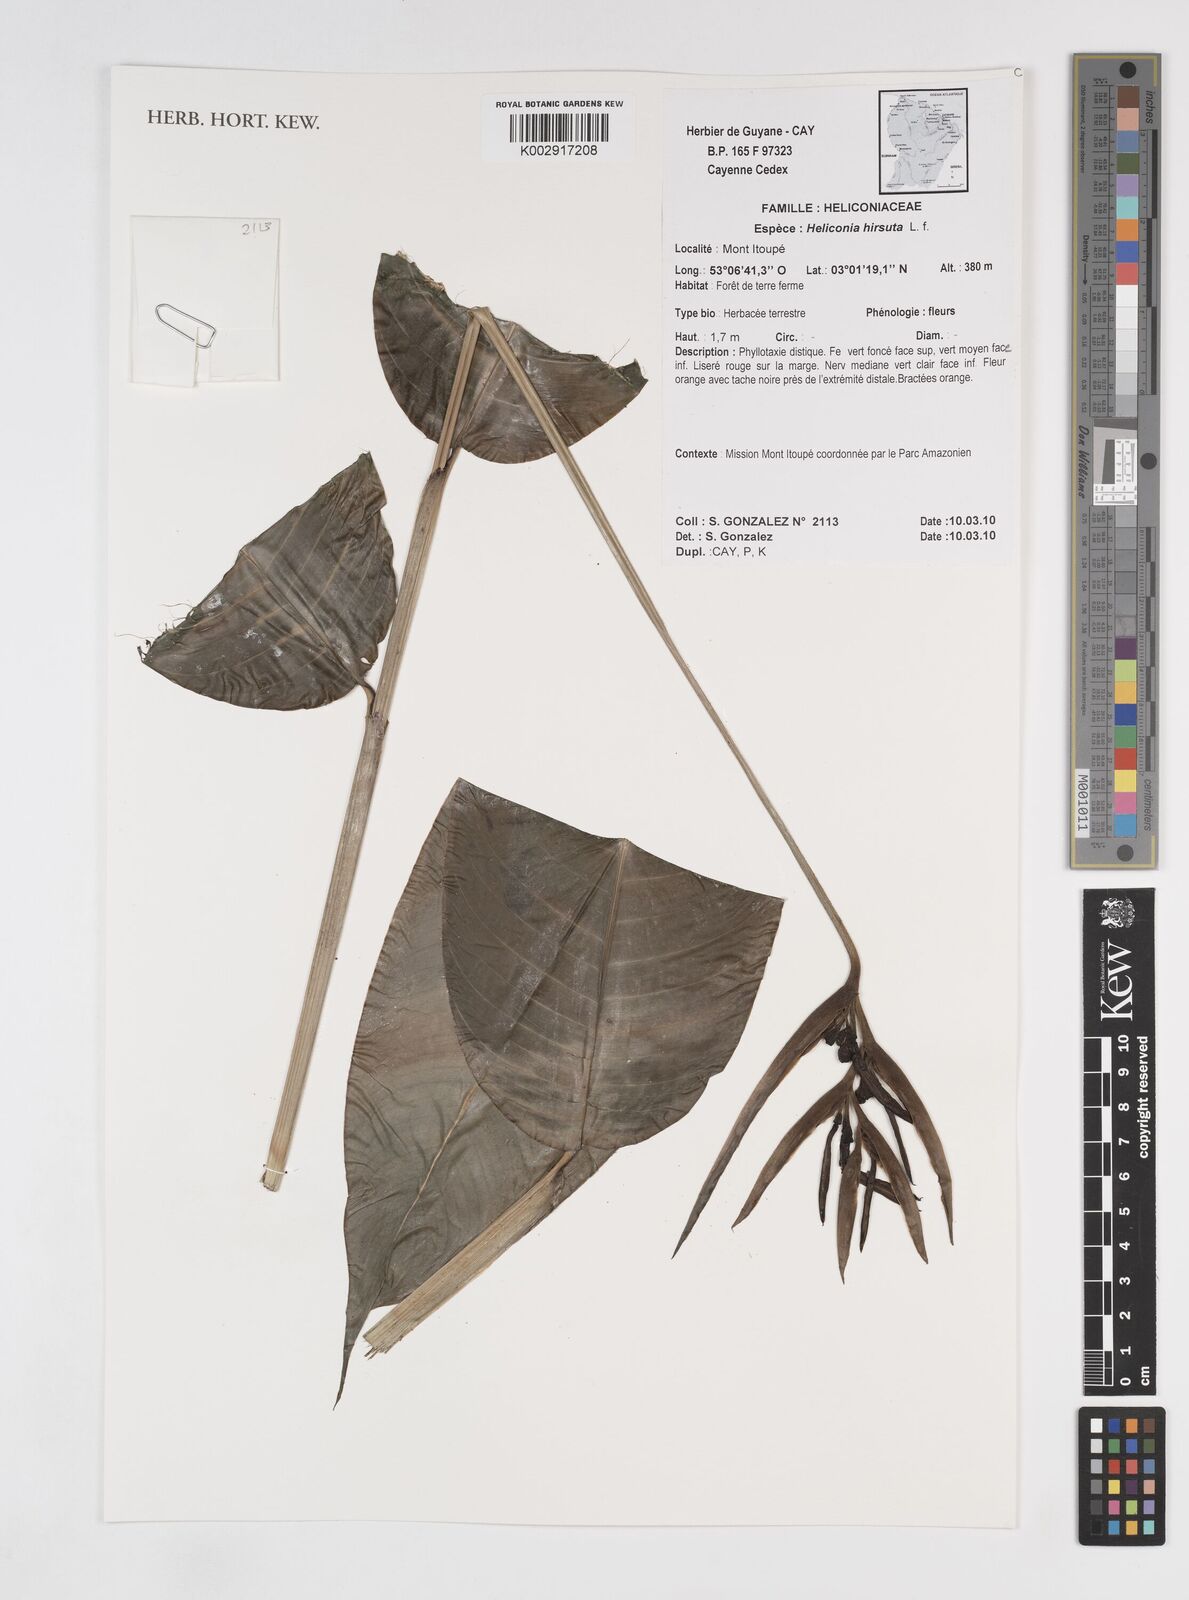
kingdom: Plantae
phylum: Tracheophyta
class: Liliopsida
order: Zingiberales
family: Heliconiaceae
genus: Heliconia
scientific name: Heliconia hirsuta
